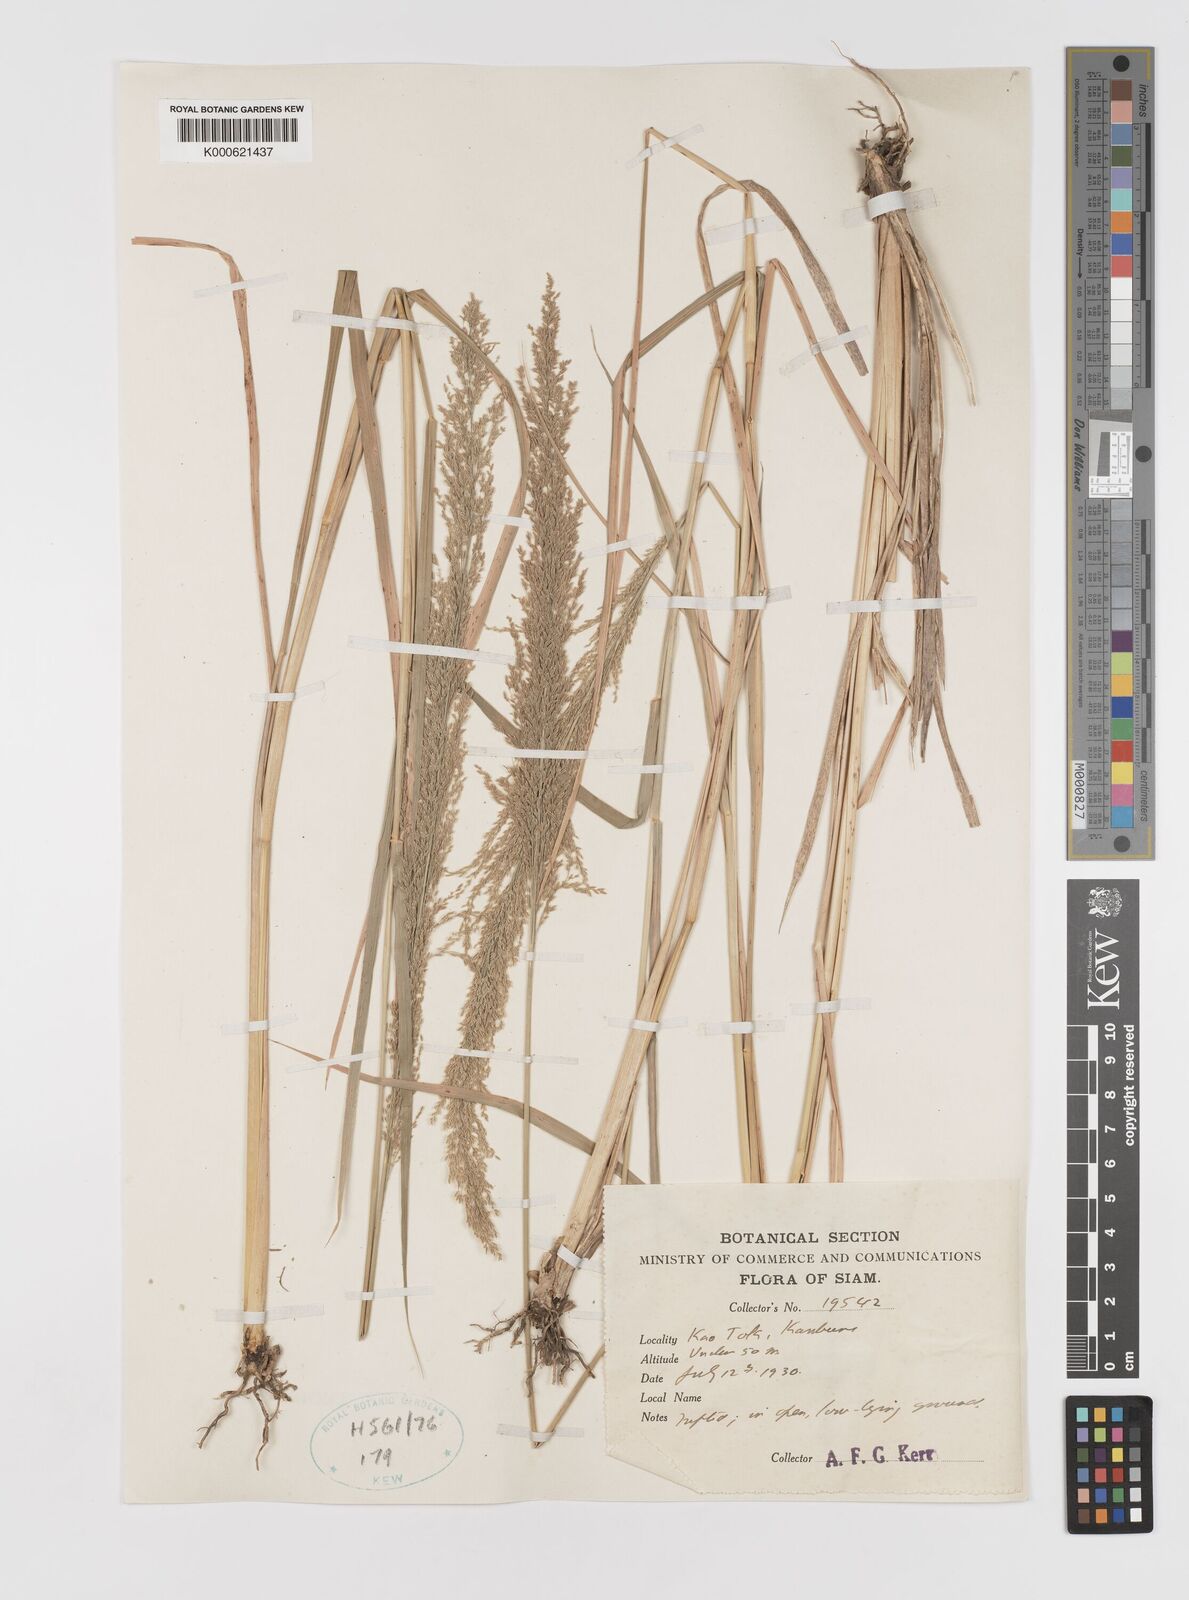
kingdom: Plantae
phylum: Tracheophyta
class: Liliopsida
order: Poales
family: Poaceae
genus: Eragrostis
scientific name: Eragrostis japonica
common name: Pond lovegrass
